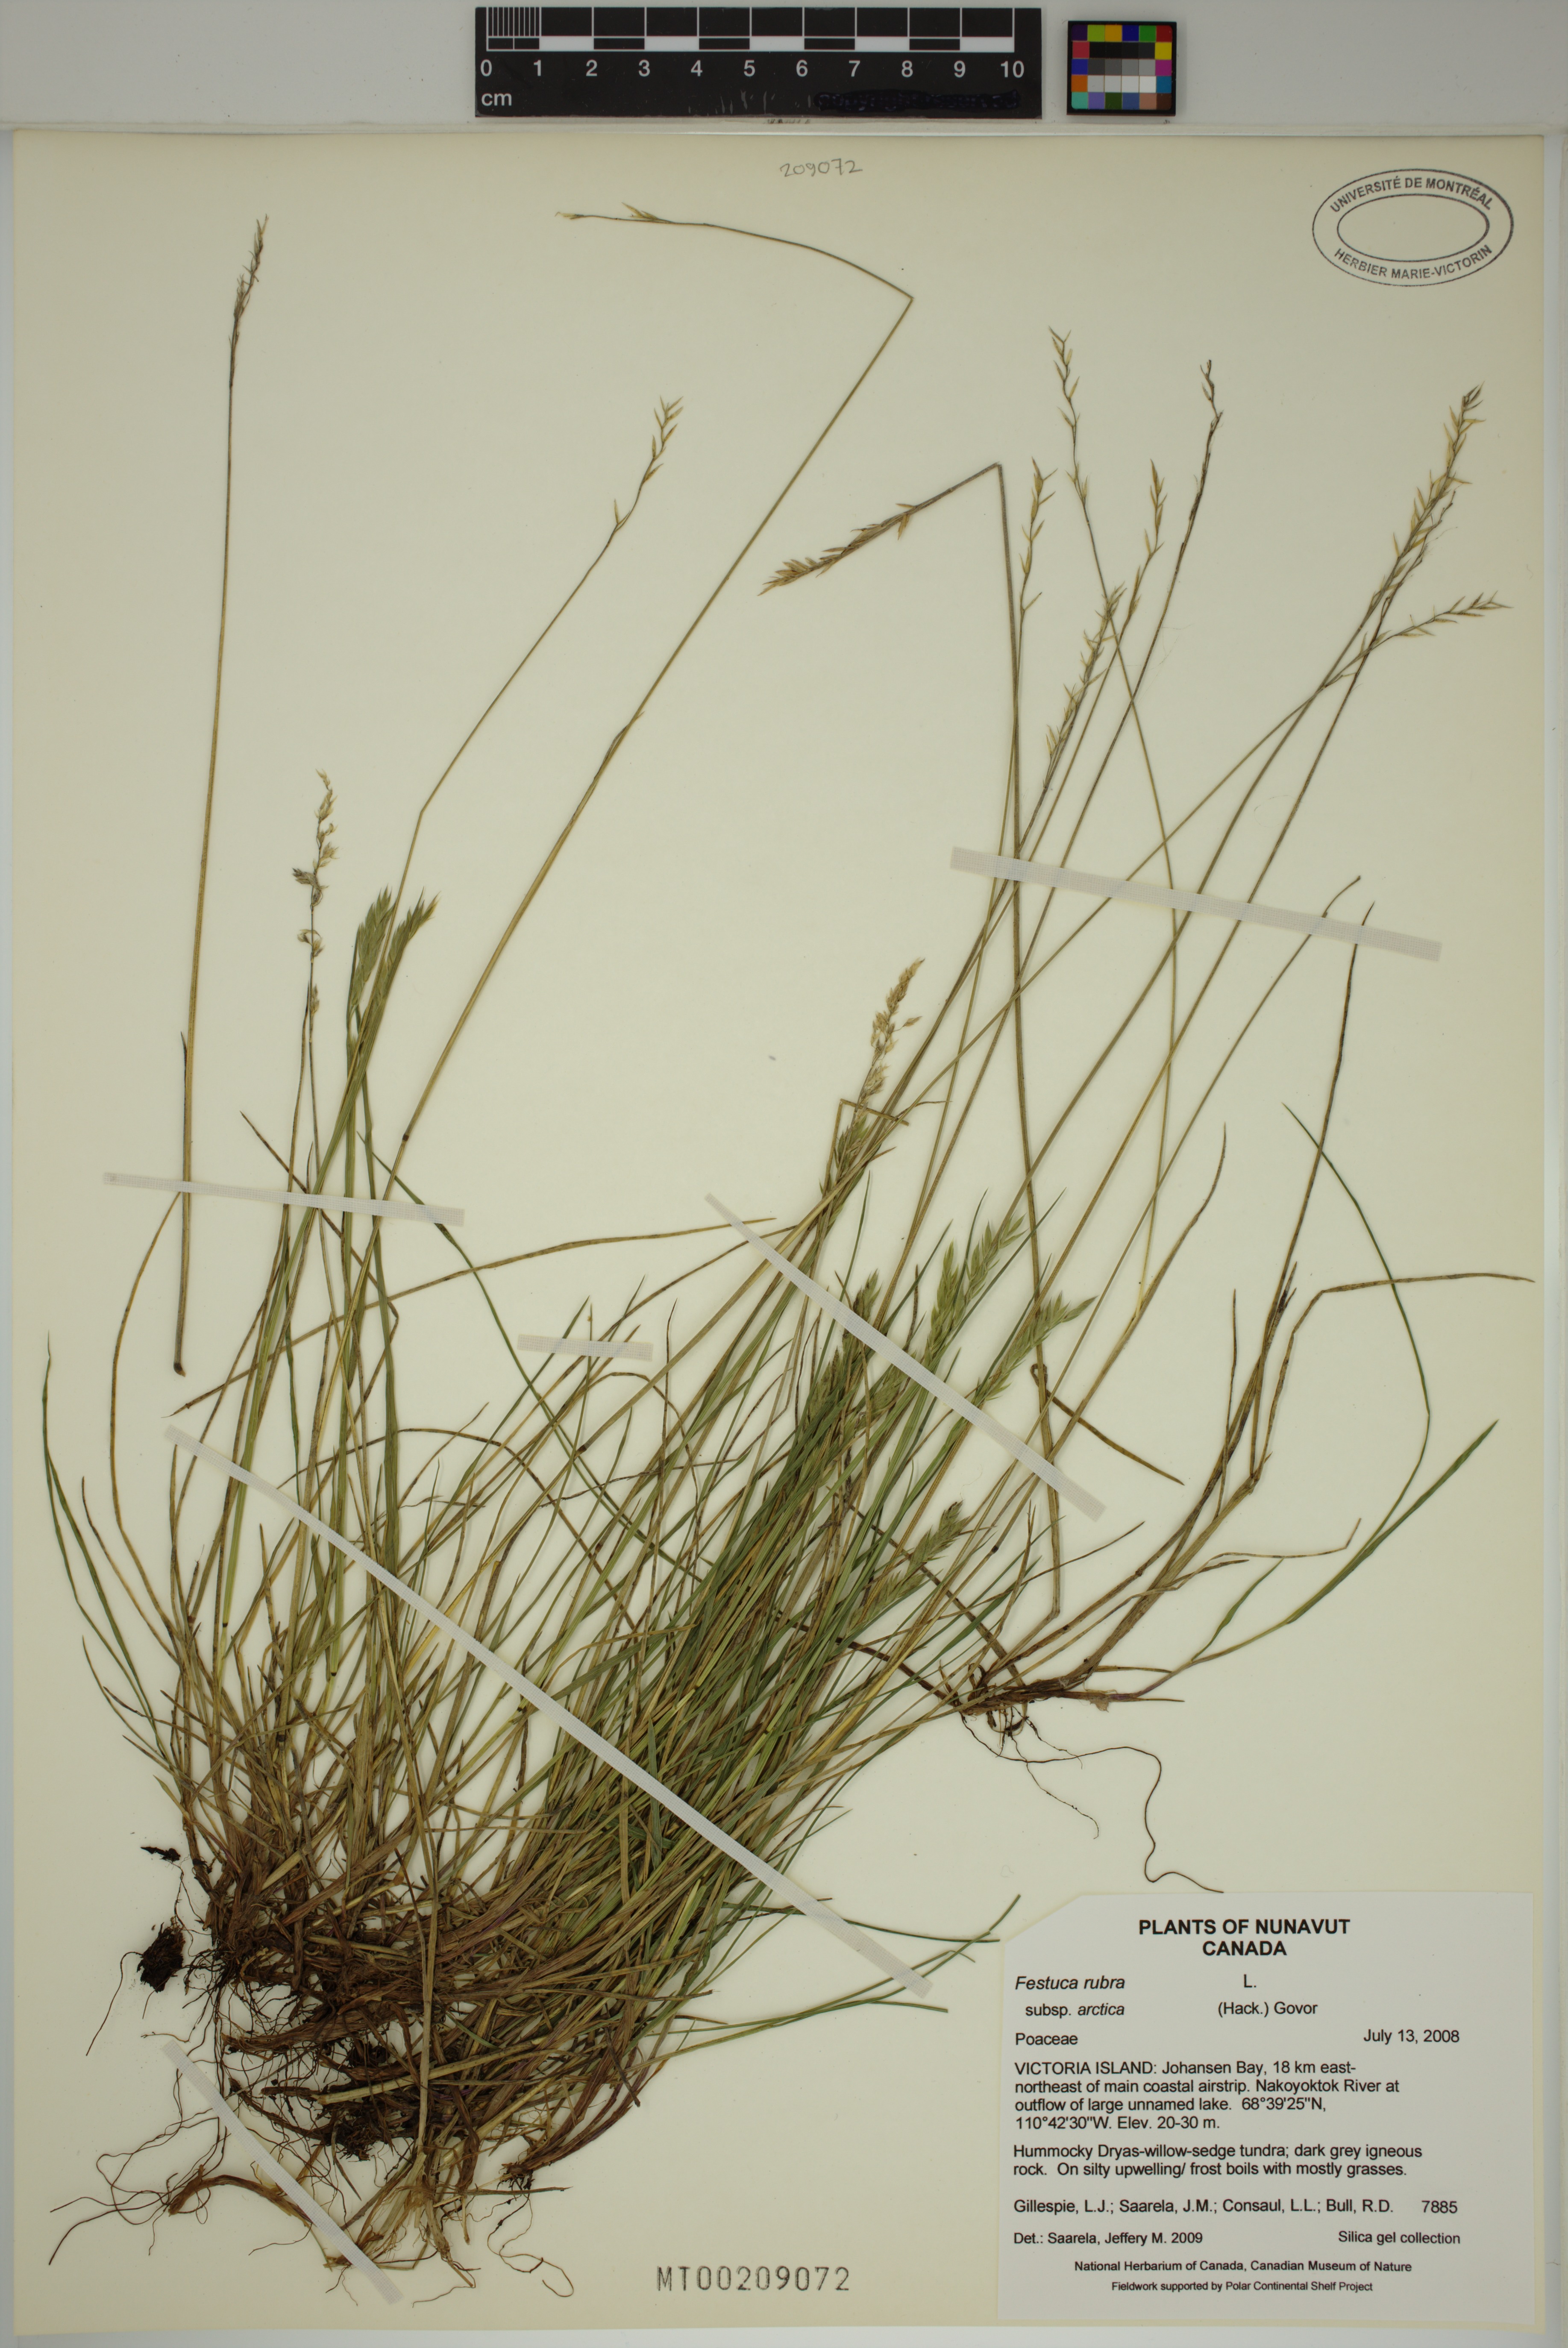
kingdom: Plantae
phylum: Tracheophyta
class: Liliopsida
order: Poales
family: Poaceae
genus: Festuca
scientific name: Festuca richardsonii
